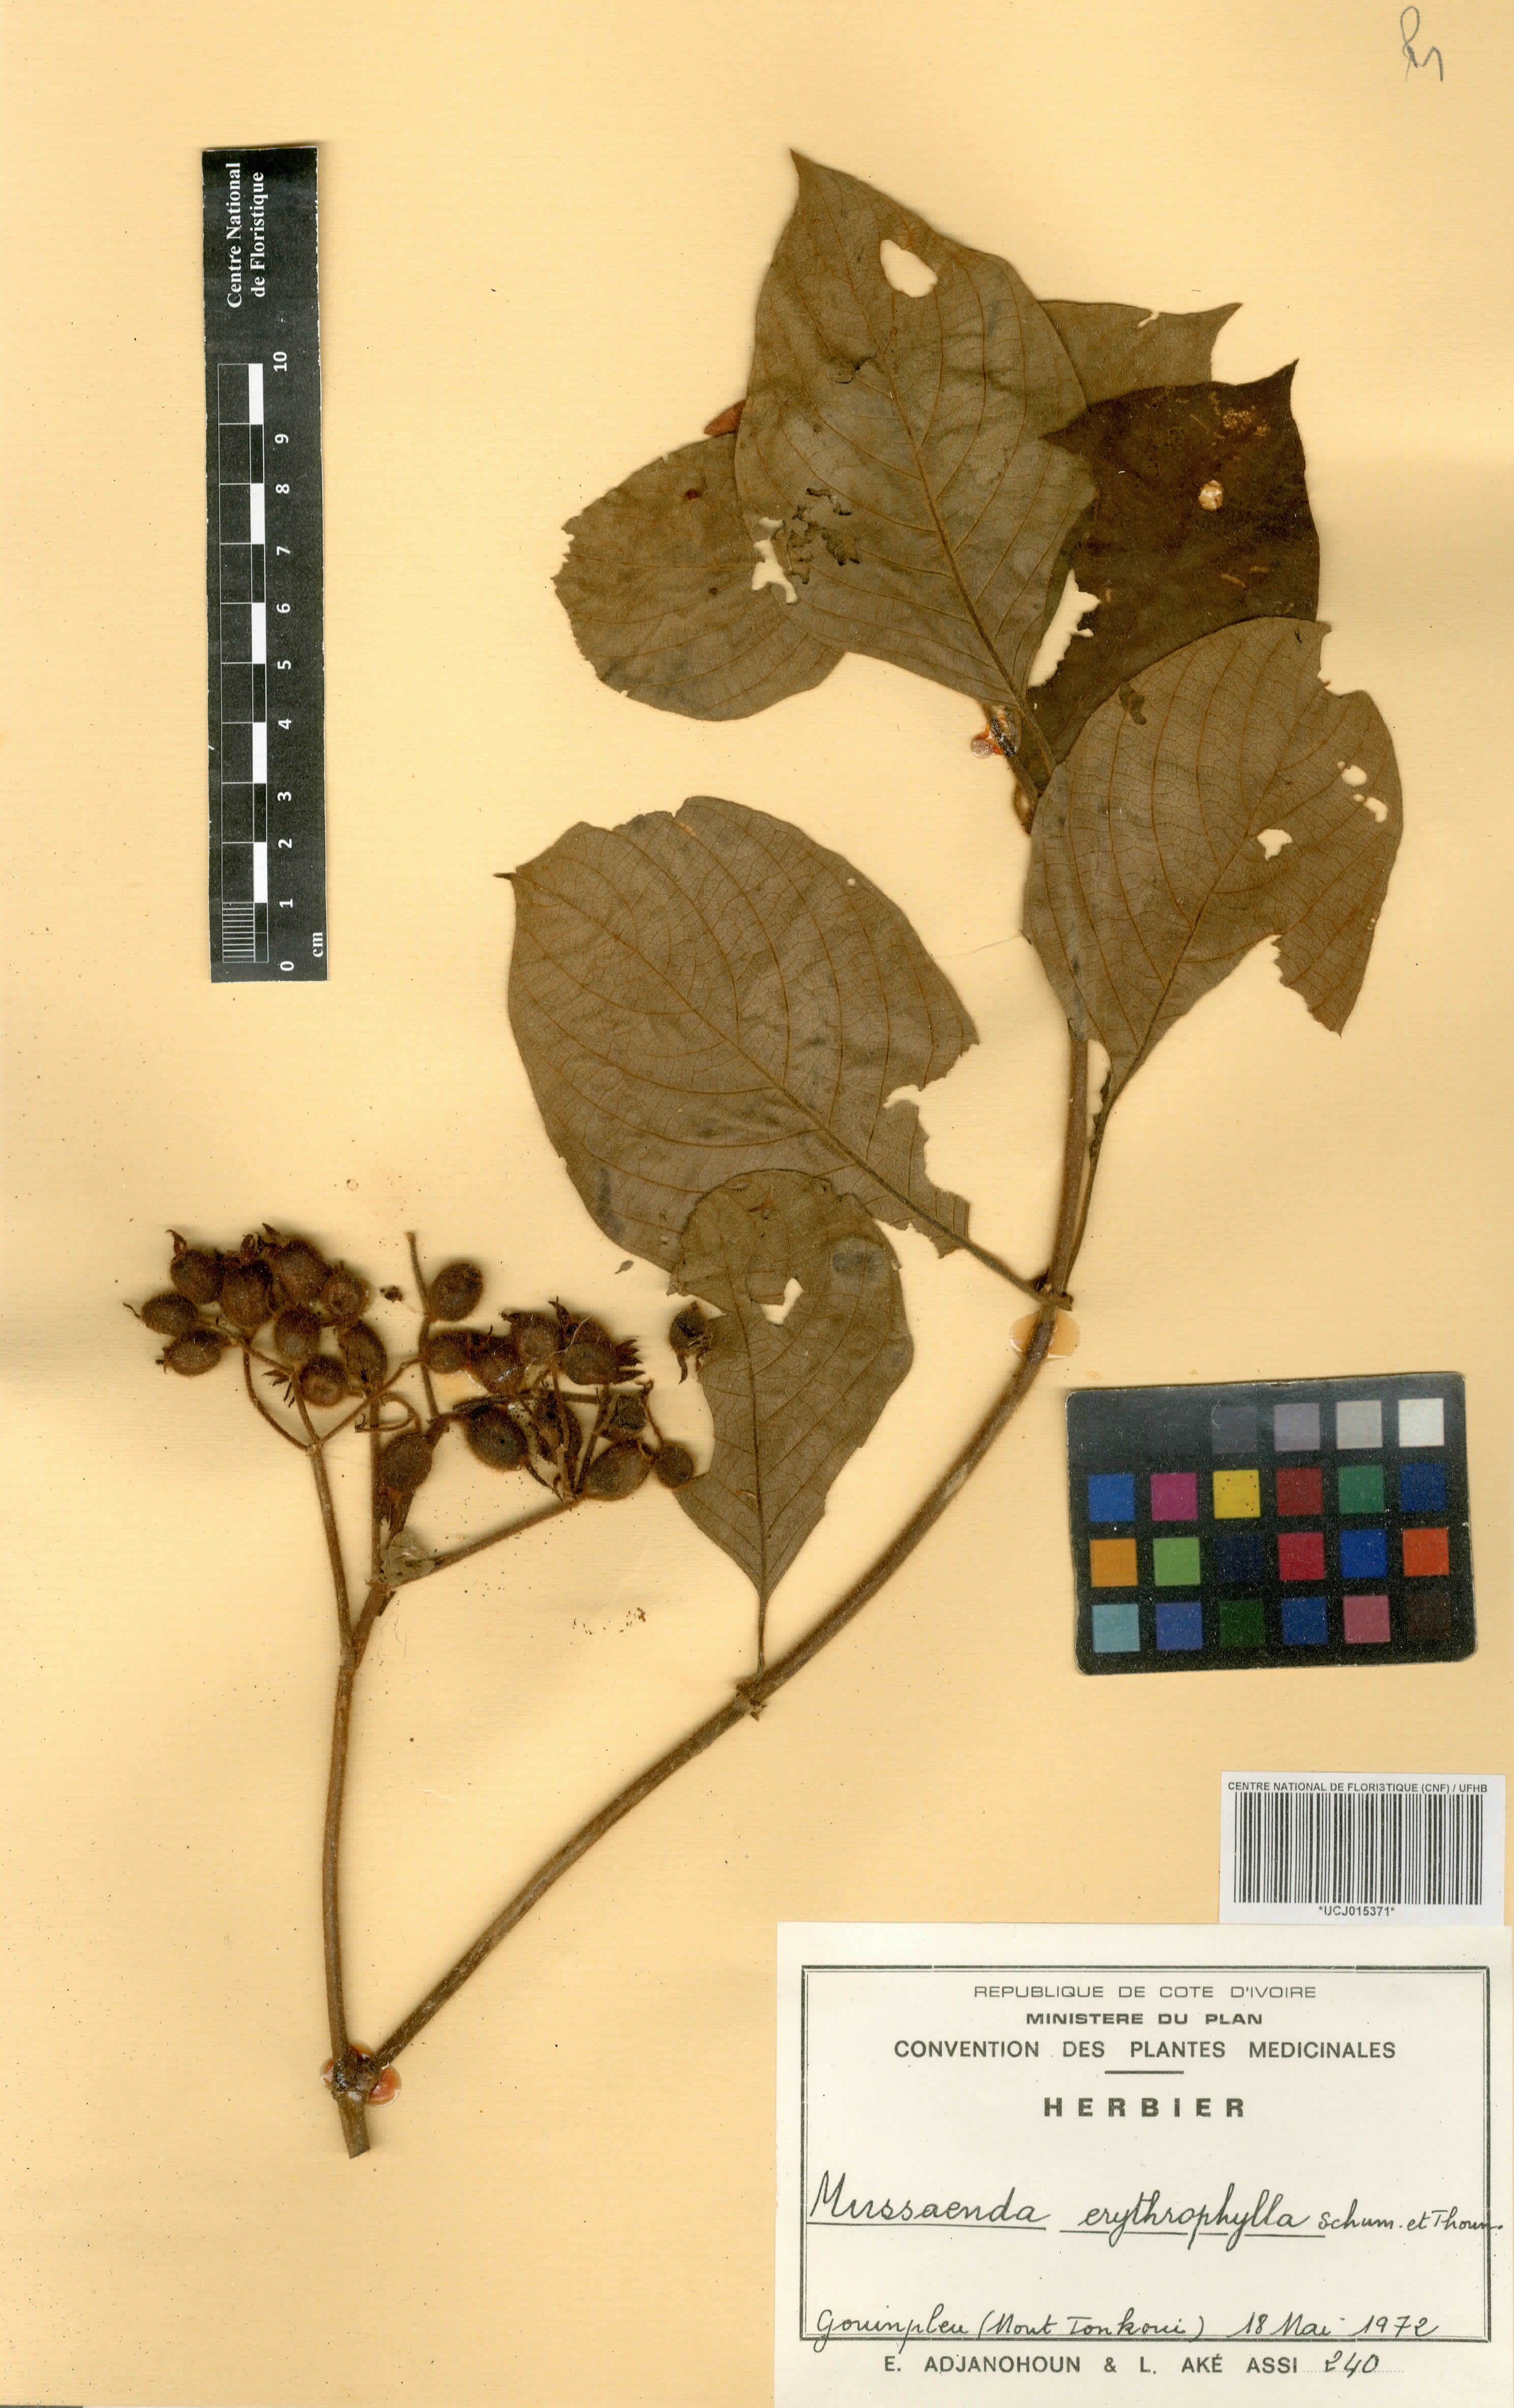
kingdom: Plantae
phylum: Tracheophyta
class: Magnoliopsida
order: Gentianales
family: Rubiaceae
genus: Mussaenda
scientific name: Mussaenda erythrophylla
